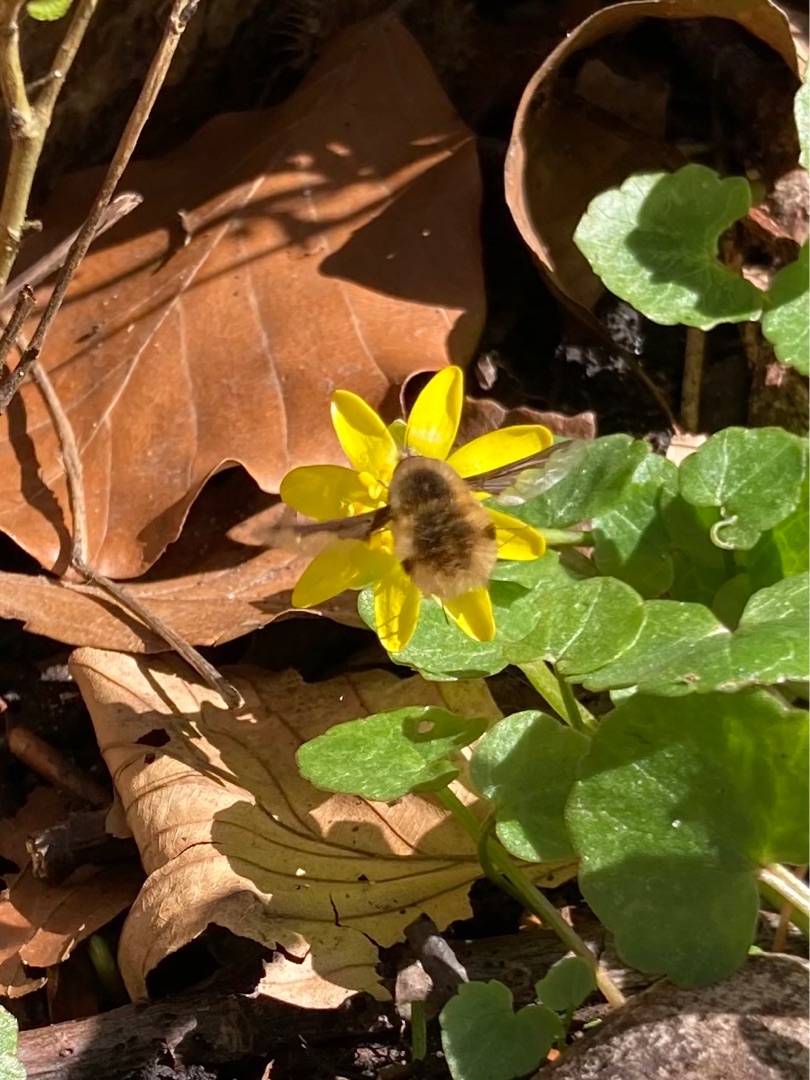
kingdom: Animalia
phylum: Arthropoda
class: Insecta
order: Diptera
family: Bombyliidae
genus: Bombylius
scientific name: Bombylius major
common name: Stor humleflue
